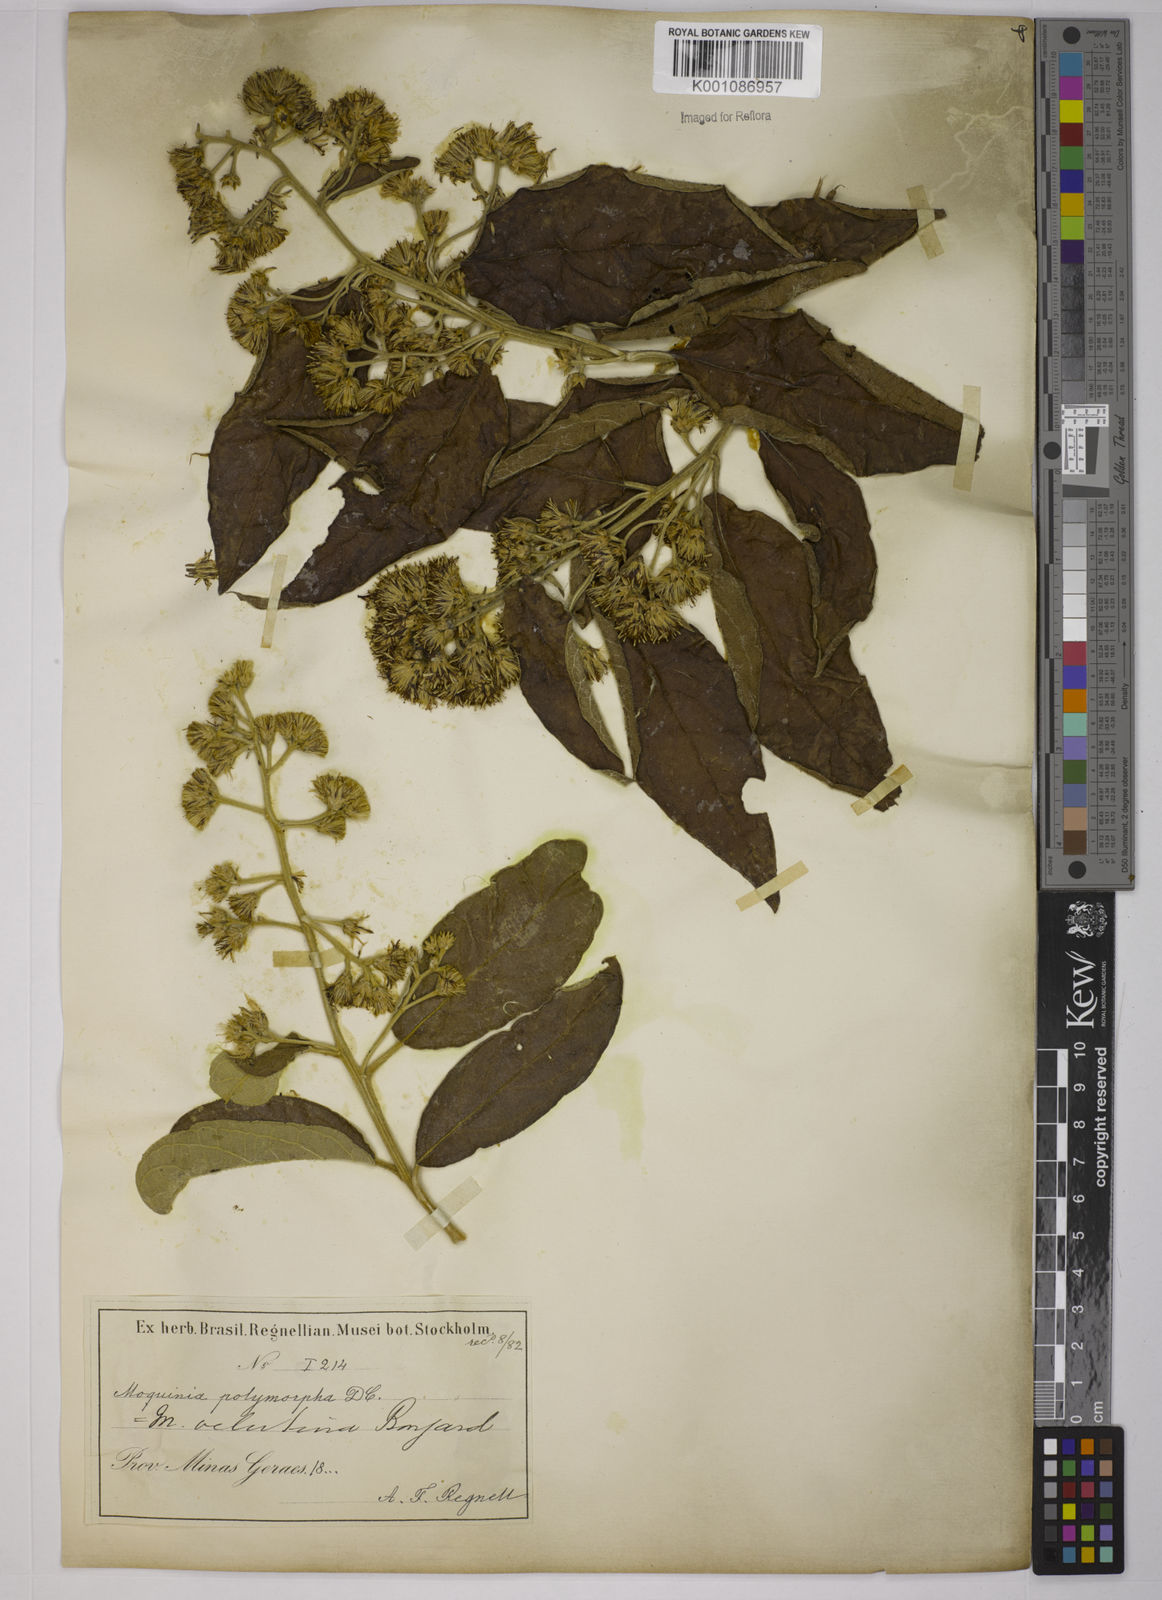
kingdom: Plantae
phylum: Tracheophyta
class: Magnoliopsida
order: Asterales
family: Asteraceae
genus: Moquiniastrum
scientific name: Moquiniastrum polymorphum
